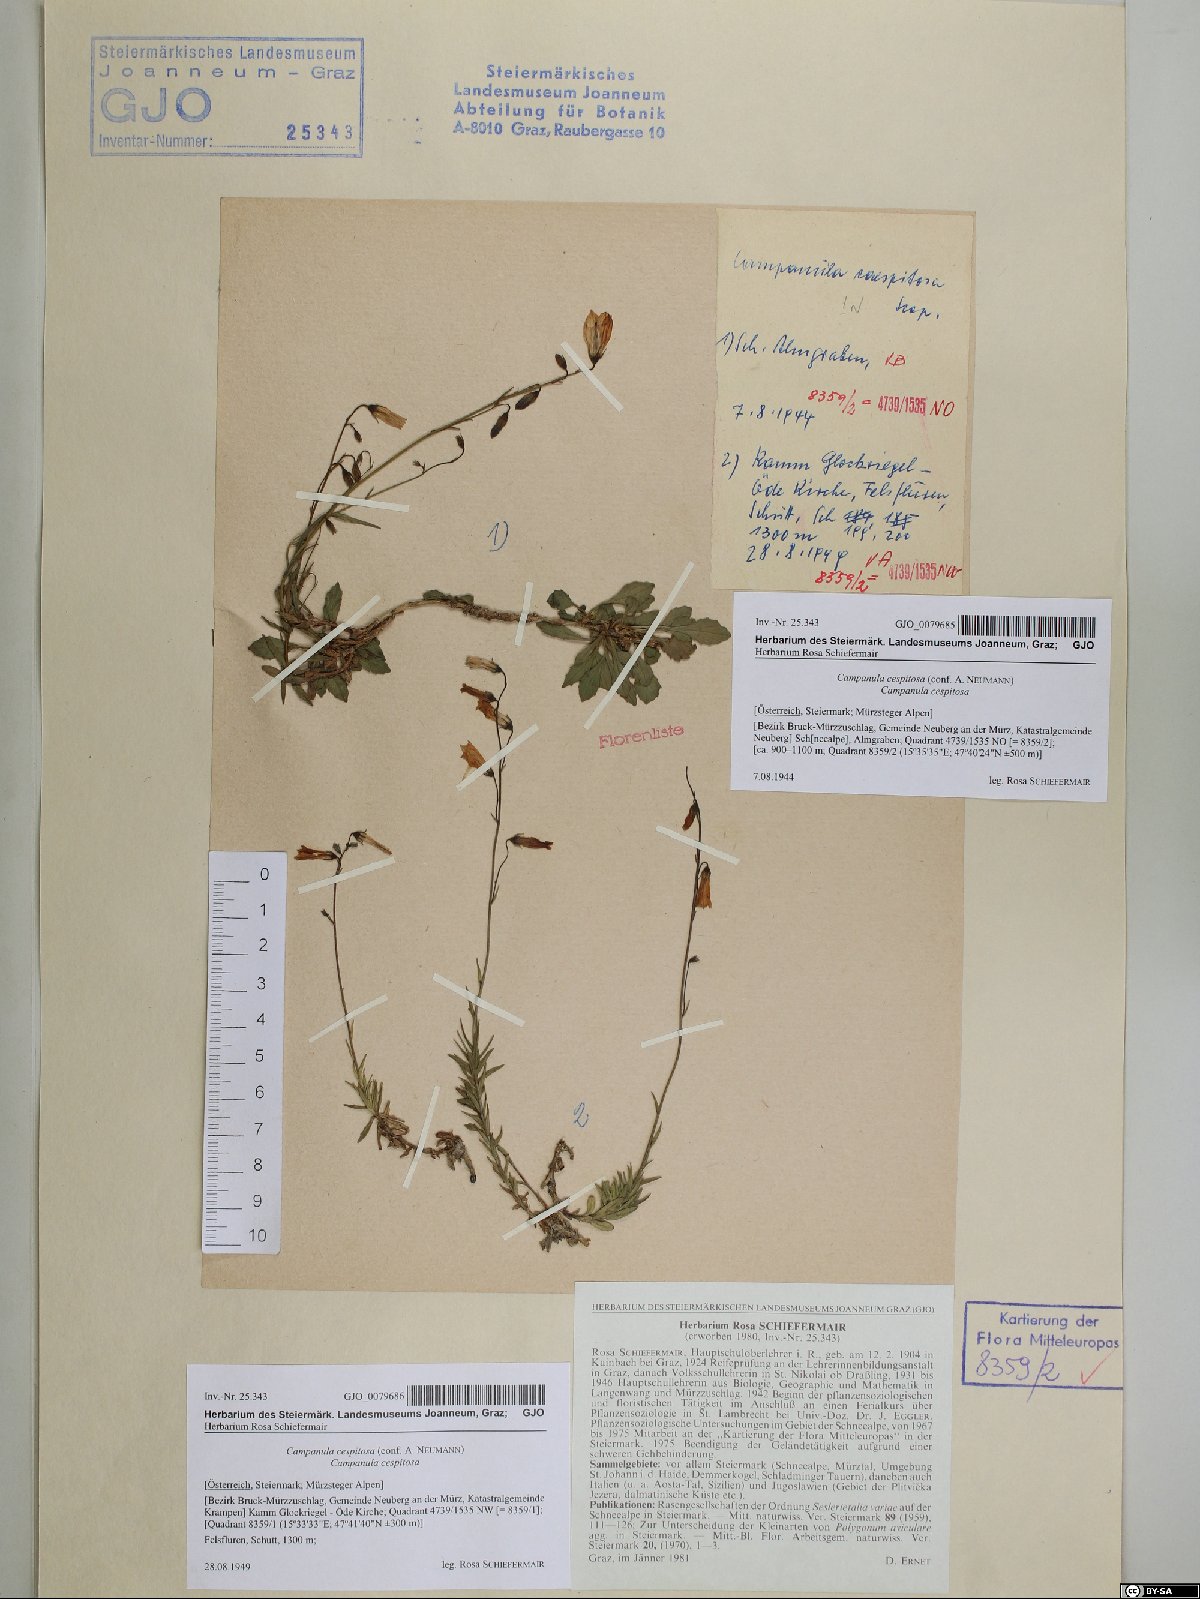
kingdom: Plantae
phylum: Tracheophyta
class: Magnoliopsida
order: Asterales
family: Campanulaceae
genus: Campanula
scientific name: Campanula cespitosa
